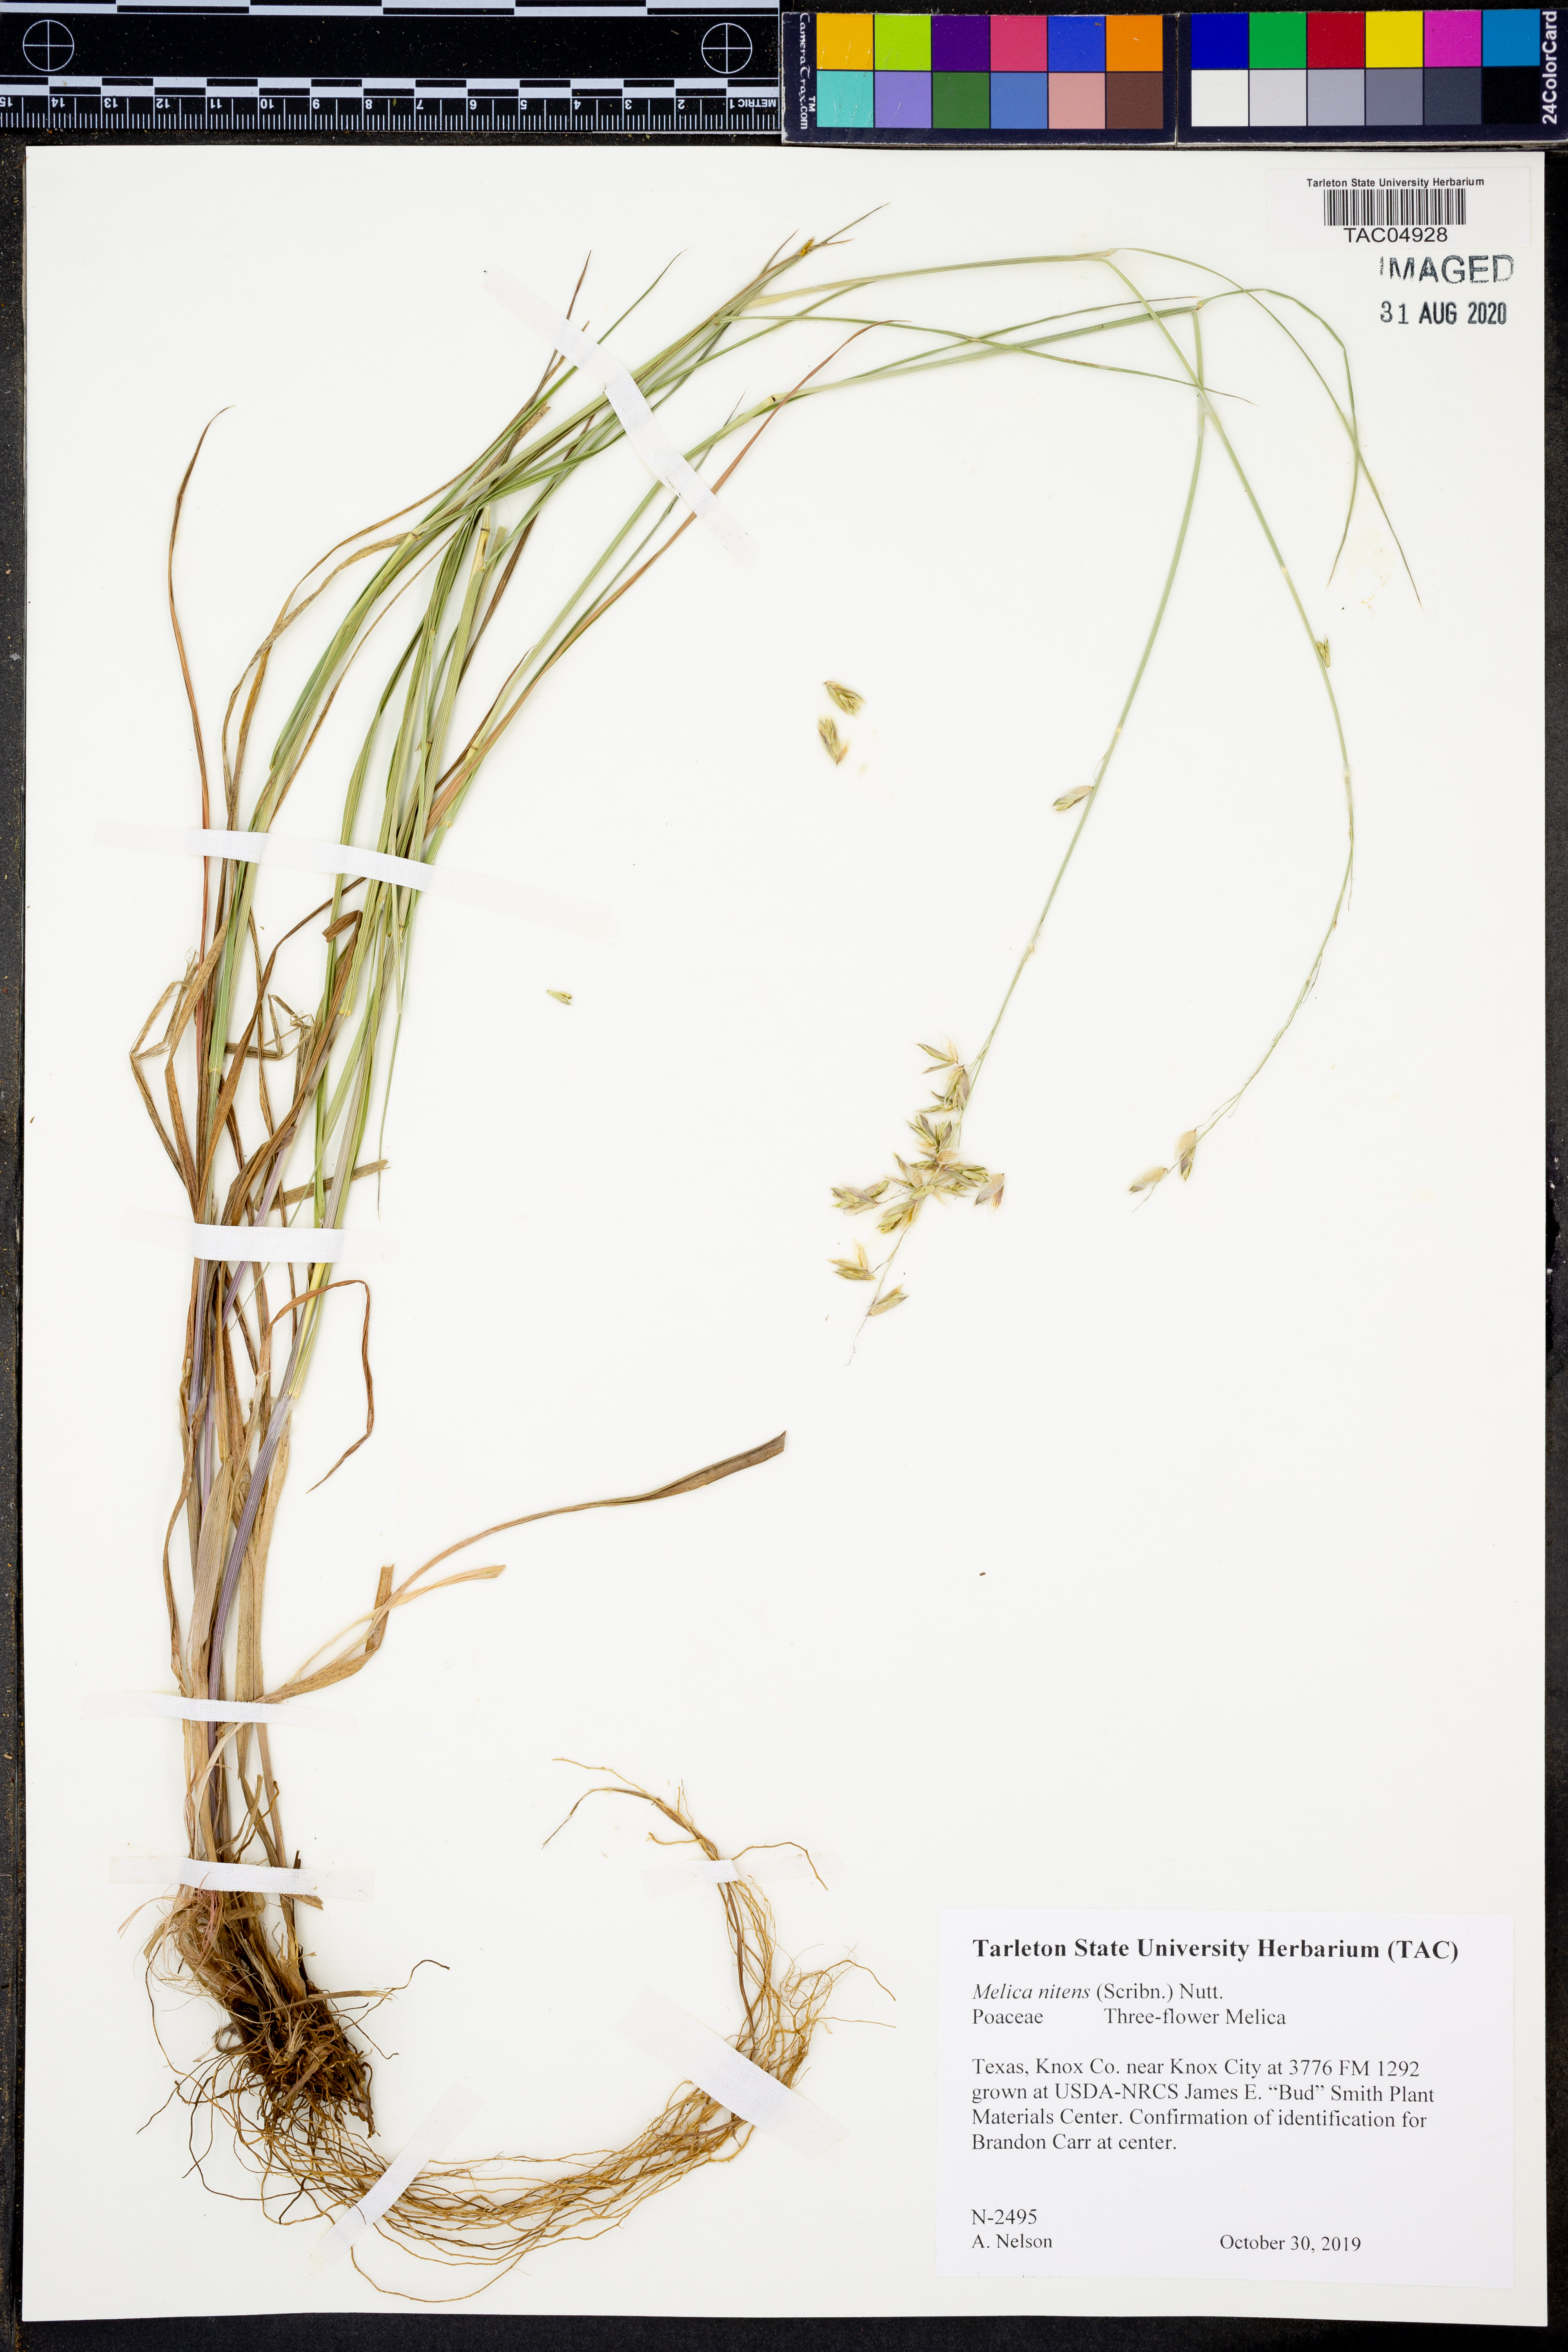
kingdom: Plantae
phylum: Tracheophyta
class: Liliopsida
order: Poales
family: Poaceae
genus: Melica
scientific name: Melica nitens
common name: Three-flower melic
